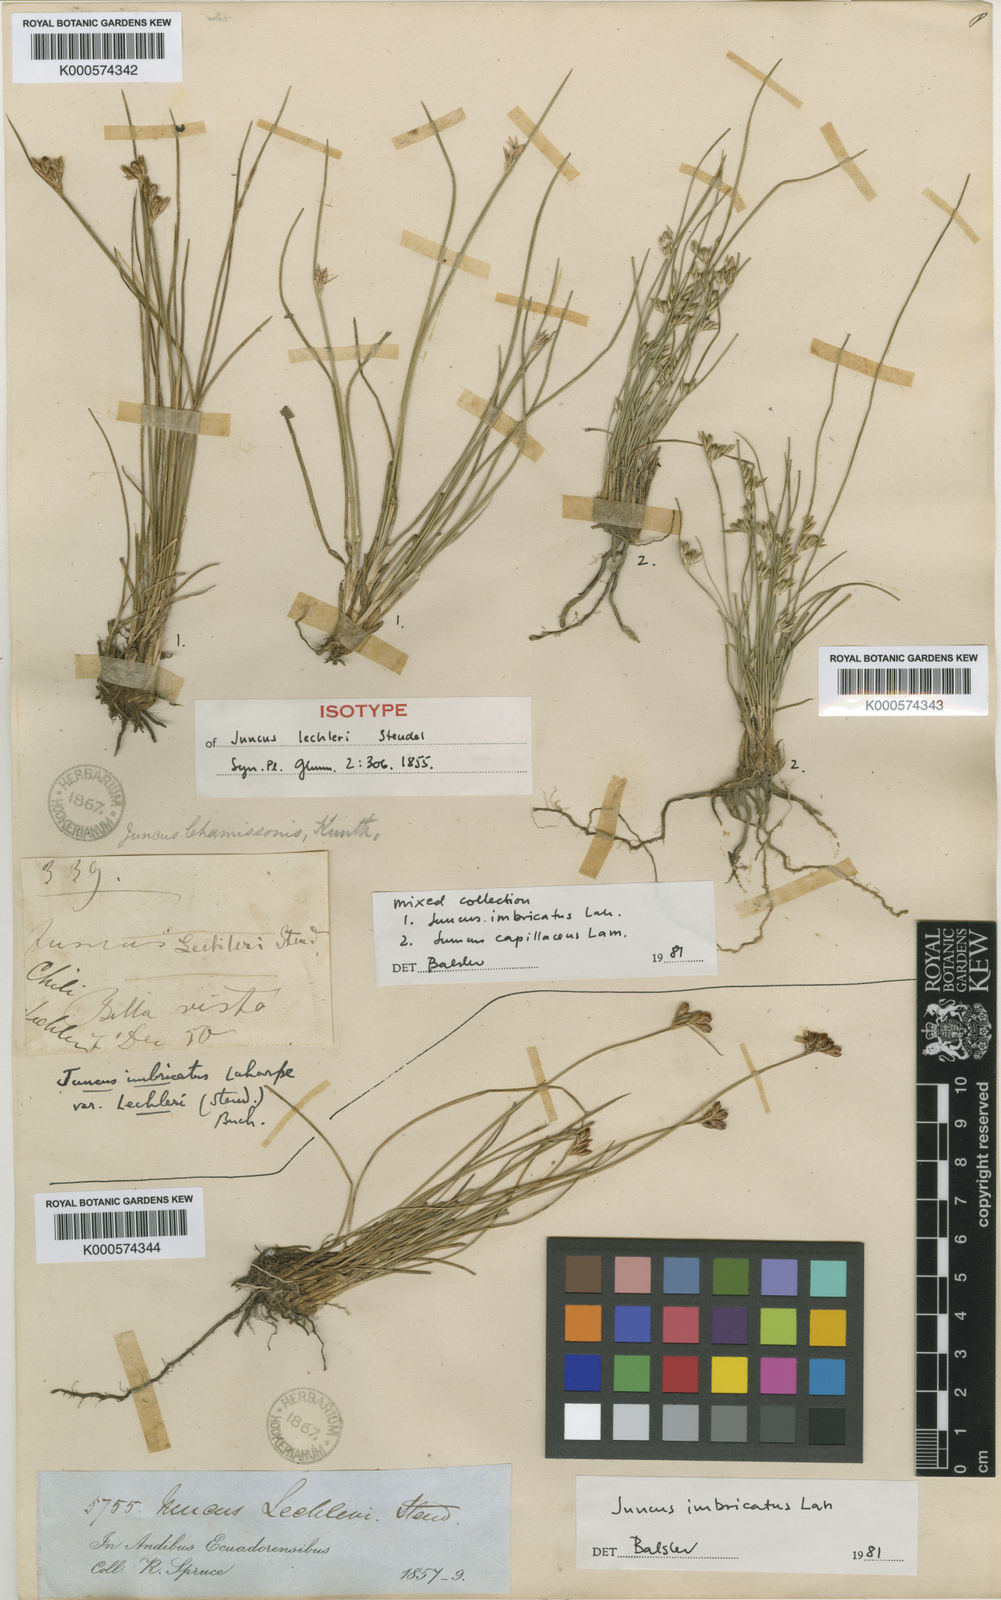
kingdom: Plantae
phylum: Tracheophyta
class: Liliopsida
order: Poales
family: Juncaceae
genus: Juncus
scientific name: Juncus imbricatus
